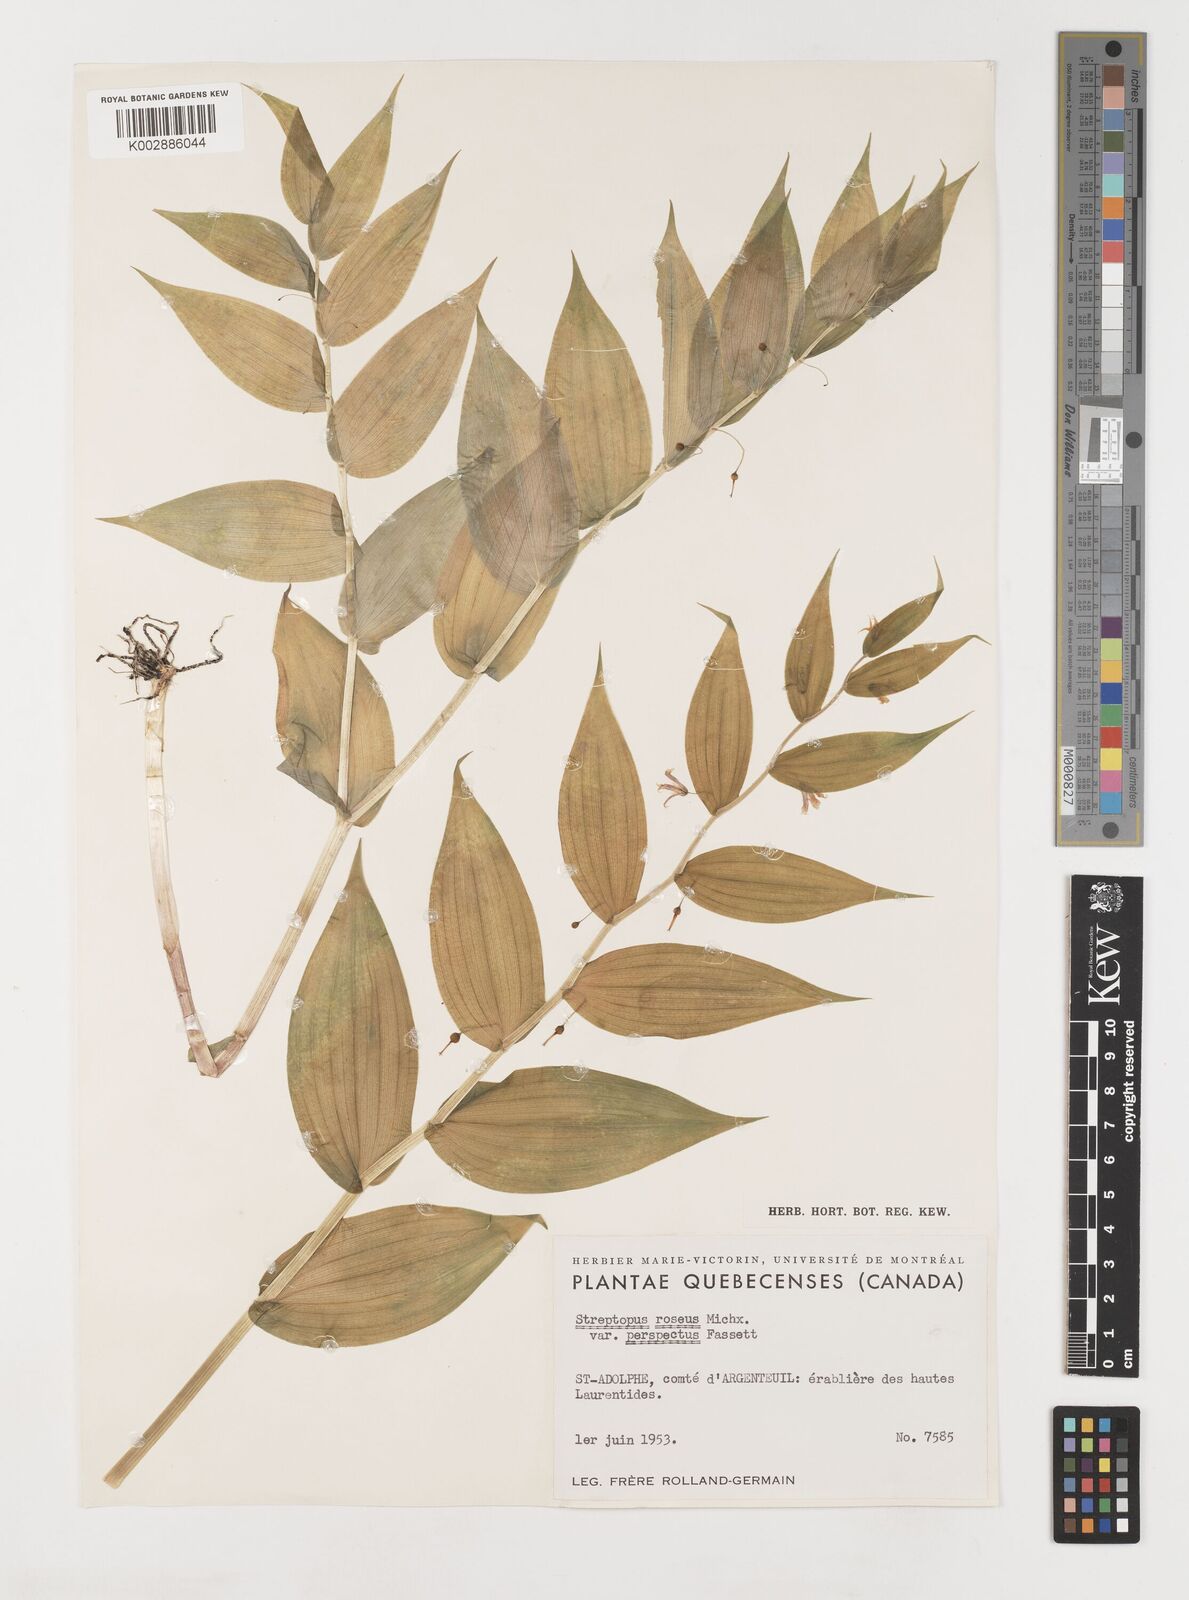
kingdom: Plantae
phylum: Tracheophyta
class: Liliopsida
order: Liliales
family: Liliaceae
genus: Streptopus
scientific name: Streptopus lanceolatus
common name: Rose mandarin
